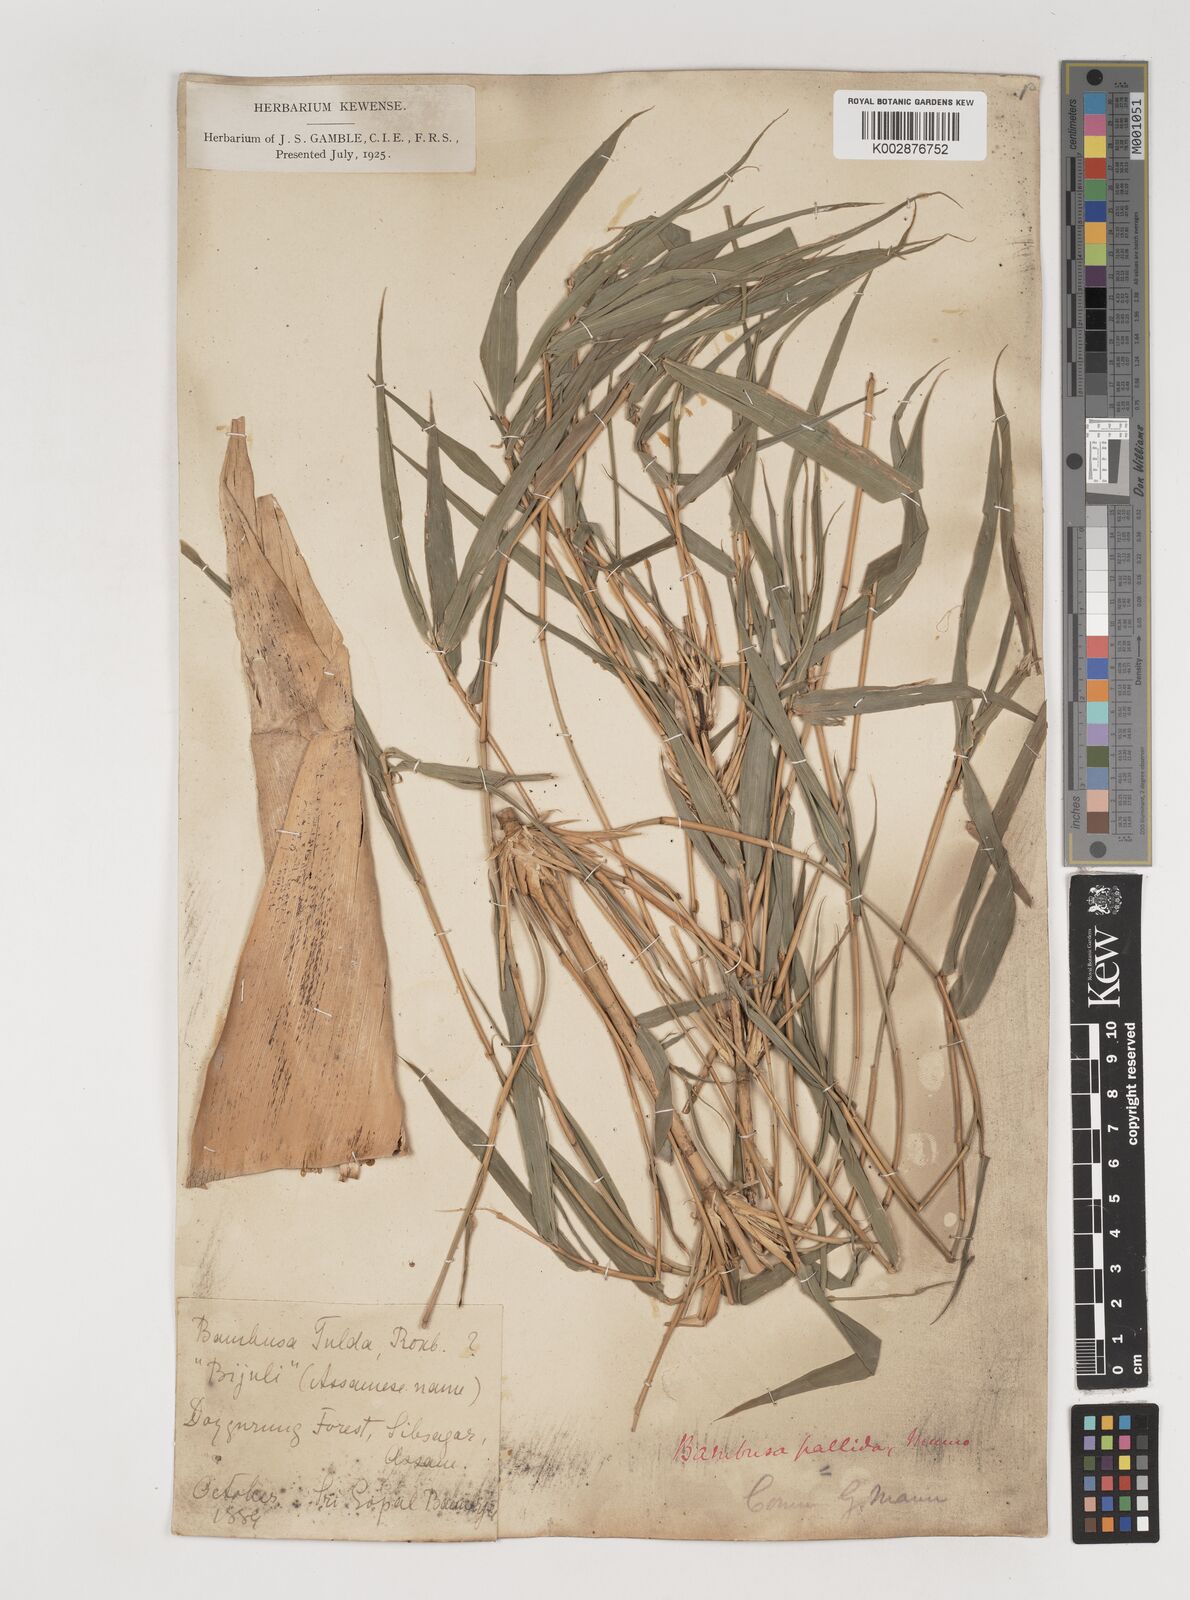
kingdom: Plantae
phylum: Tracheophyta
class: Liliopsida
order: Poales
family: Poaceae
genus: Bambusa
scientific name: Bambusa pallida
